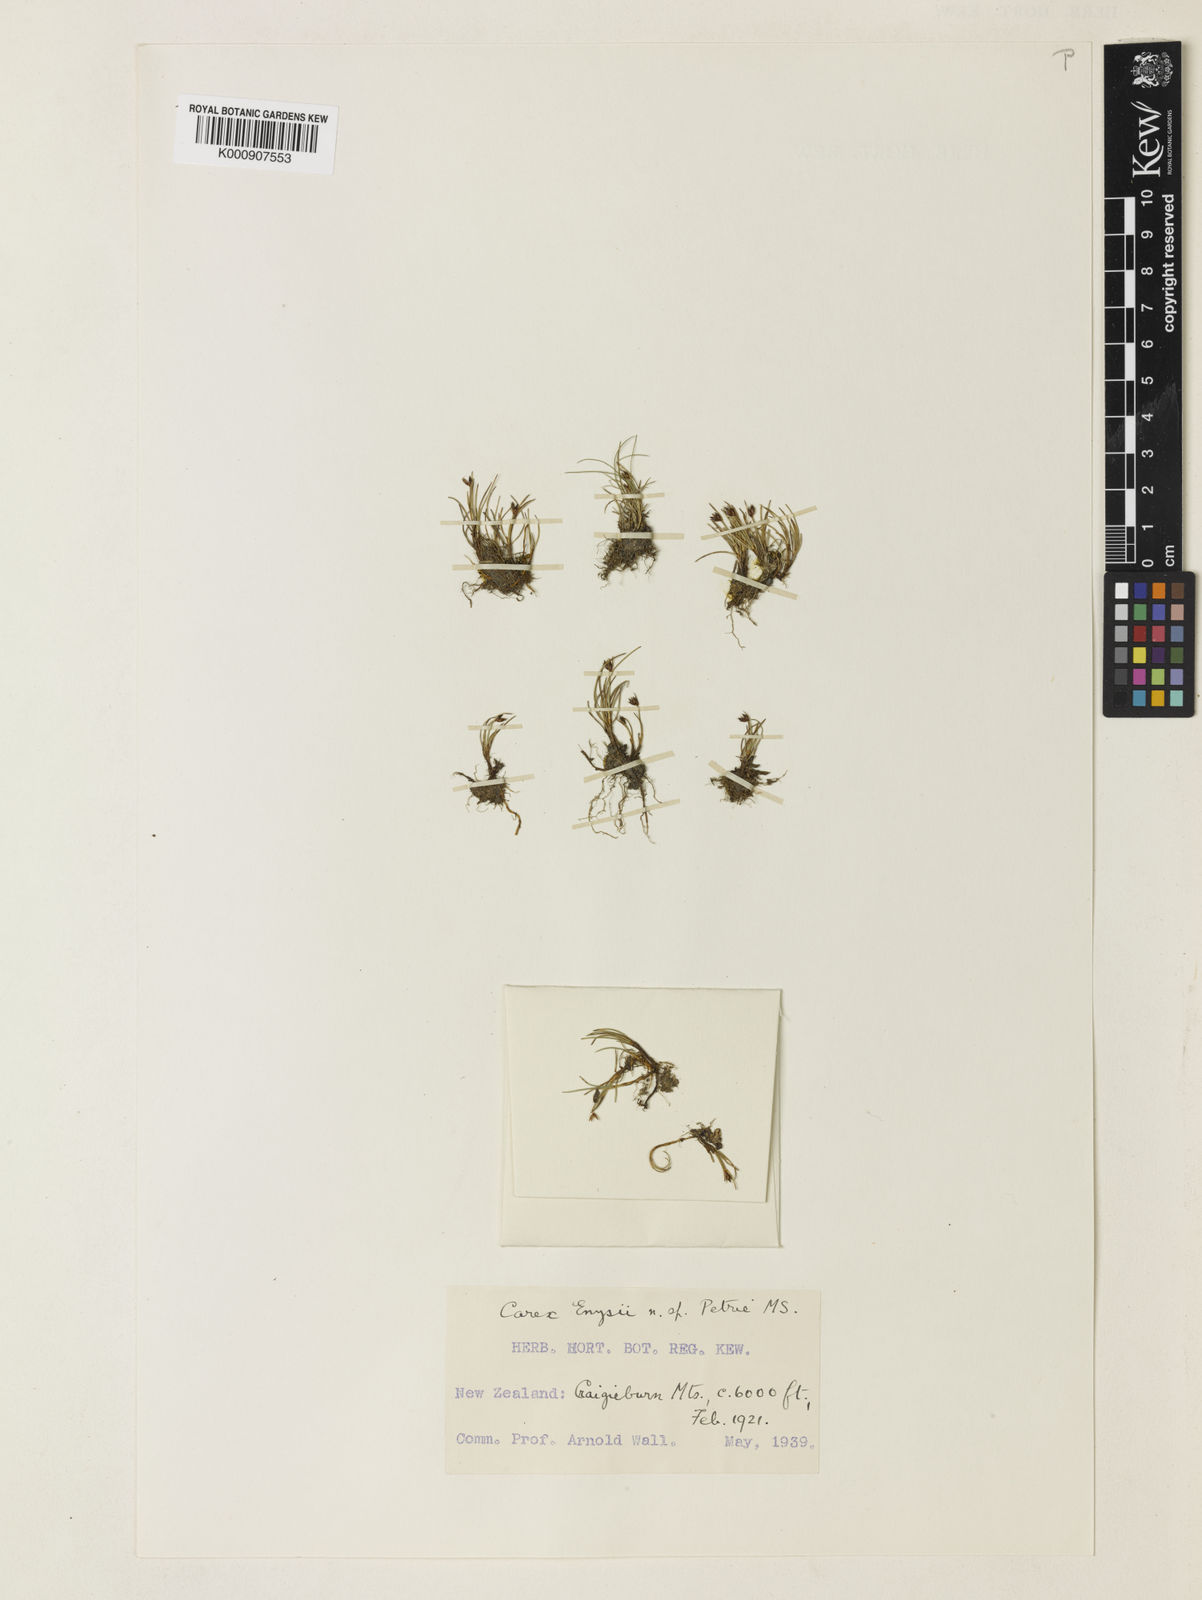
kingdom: Plantae
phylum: Tracheophyta
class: Liliopsida
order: Poales
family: Cyperaceae
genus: Carex
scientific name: Carex enysii
